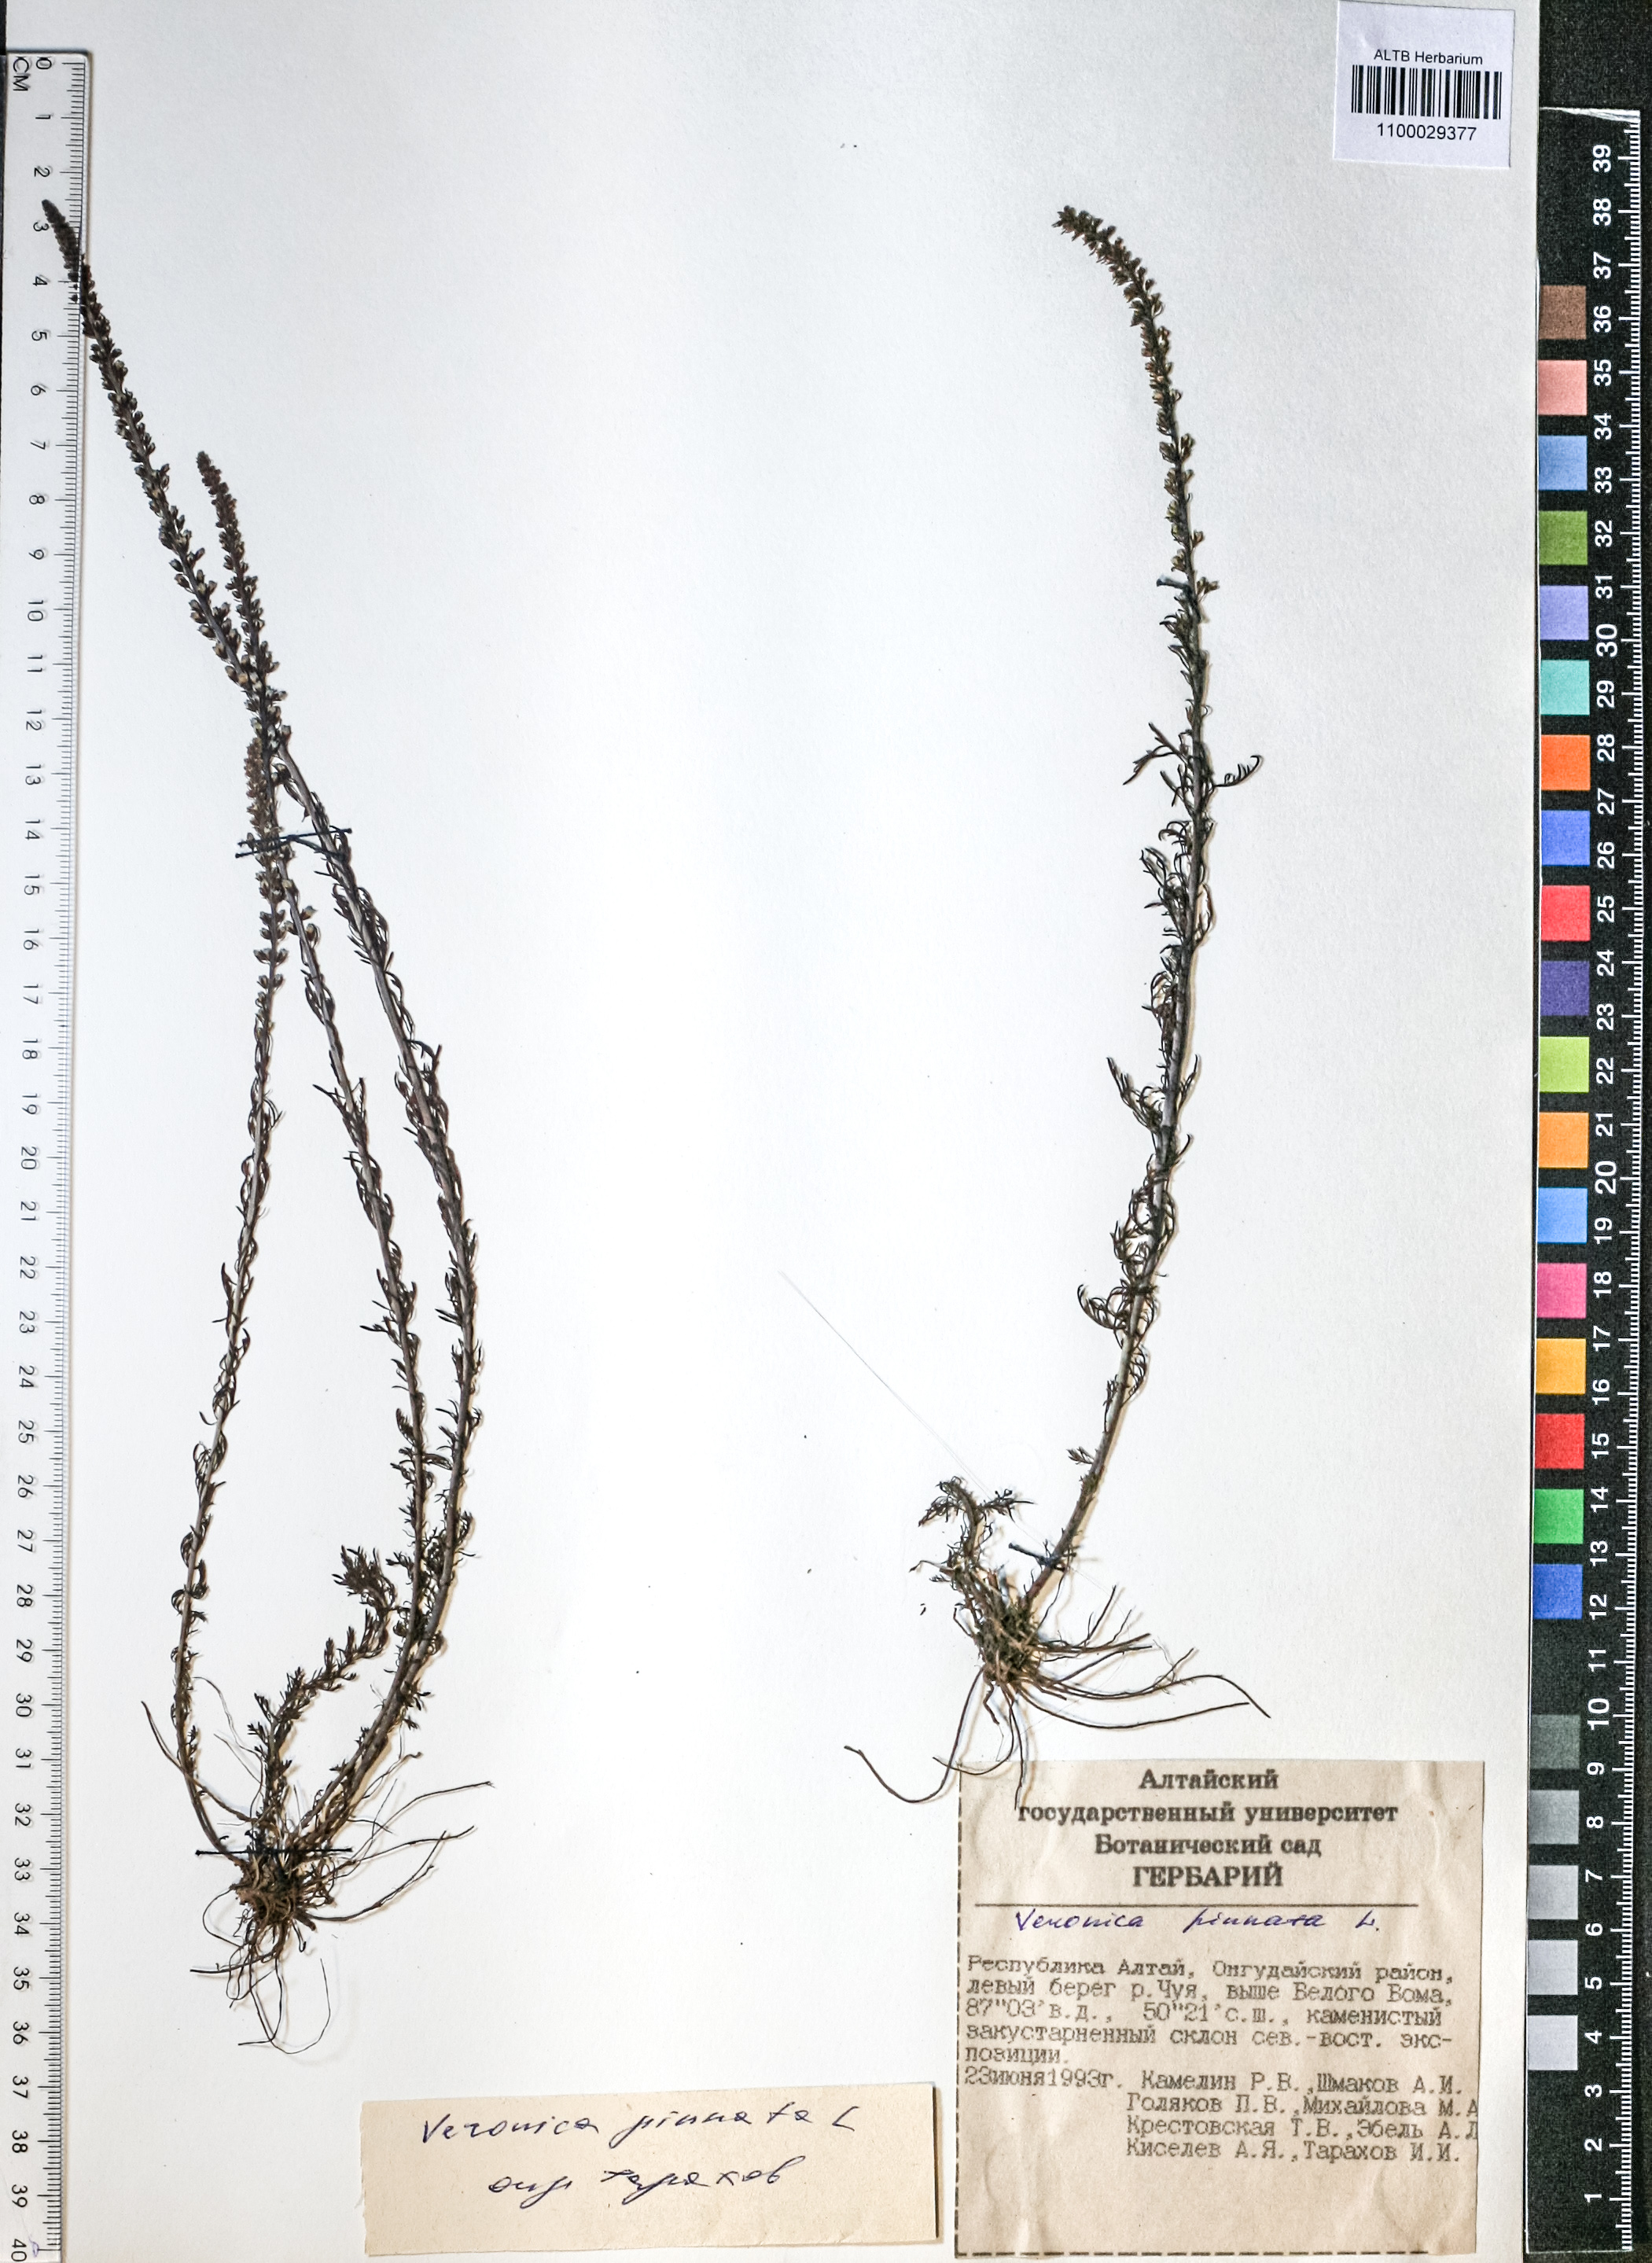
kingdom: Plantae
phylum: Tracheophyta
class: Magnoliopsida
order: Lamiales
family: Plantaginaceae
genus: Veronica
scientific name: Veronica pinnata
